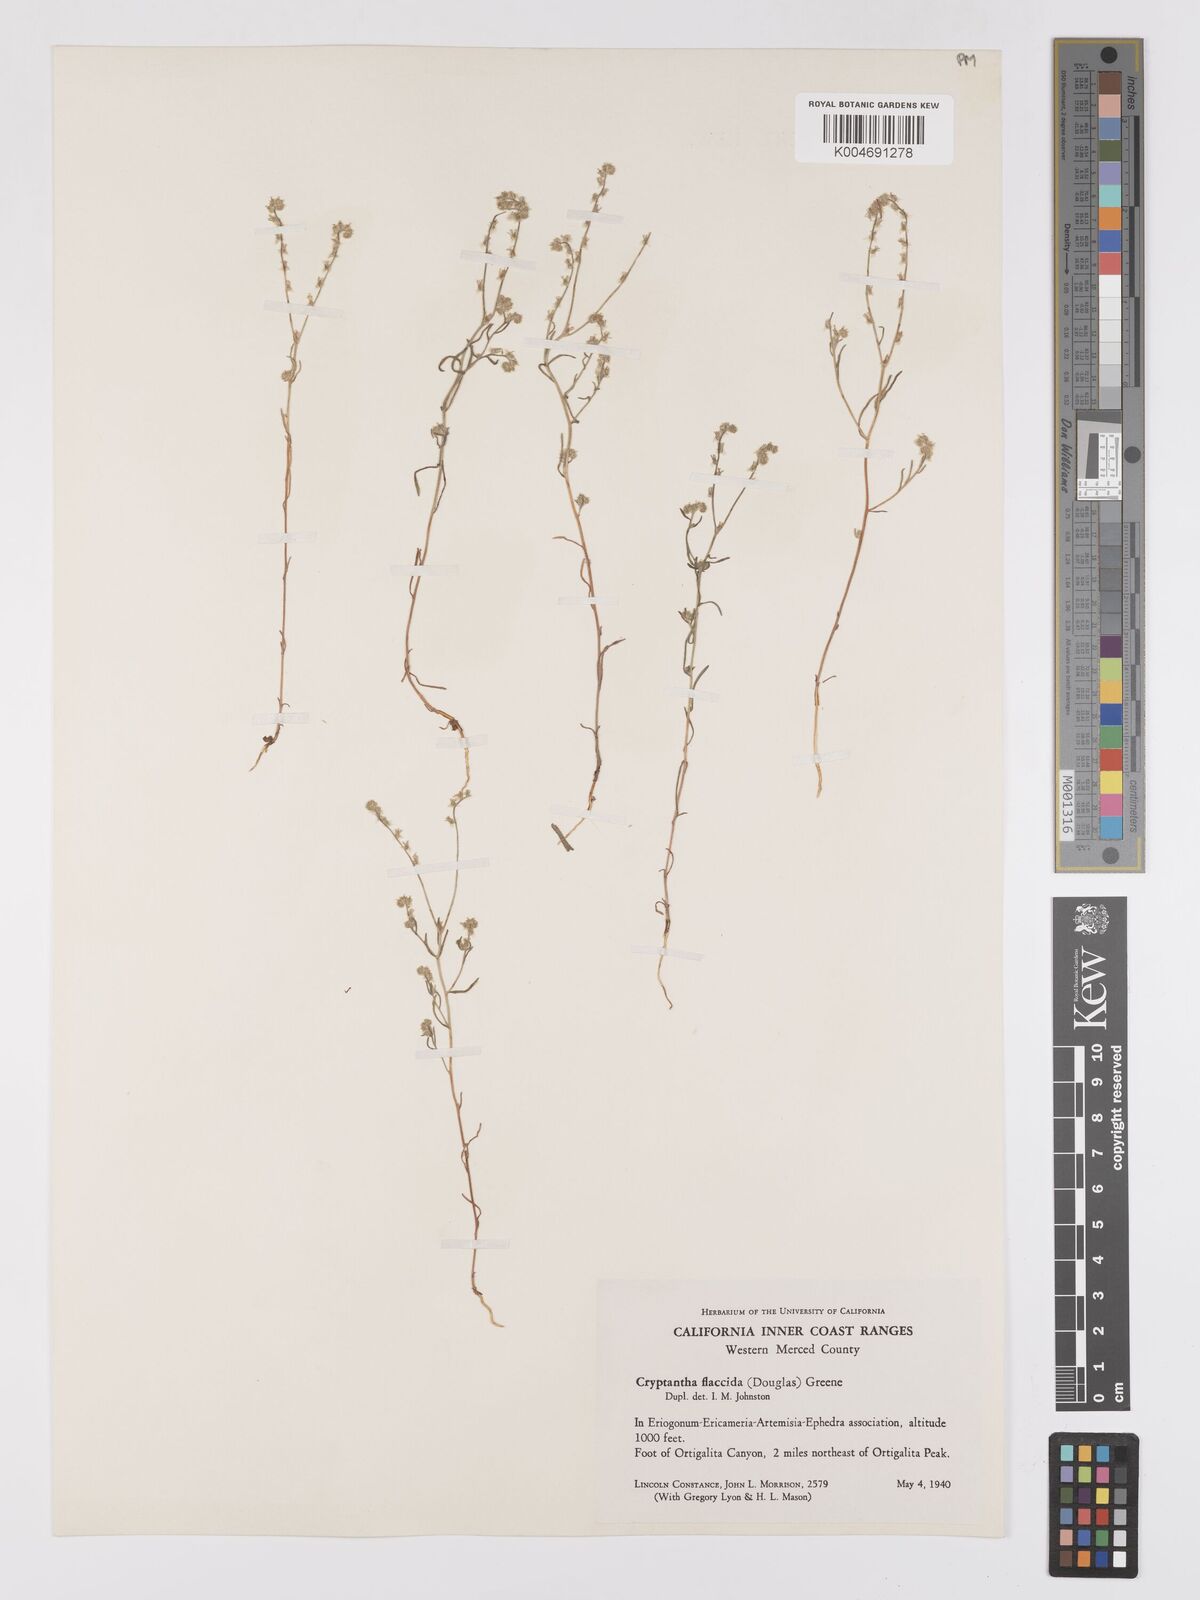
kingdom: Plantae
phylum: Tracheophyta
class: Magnoliopsida
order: Boraginales
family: Boraginaceae
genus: Cryptantha
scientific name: Cryptantha flaccida
